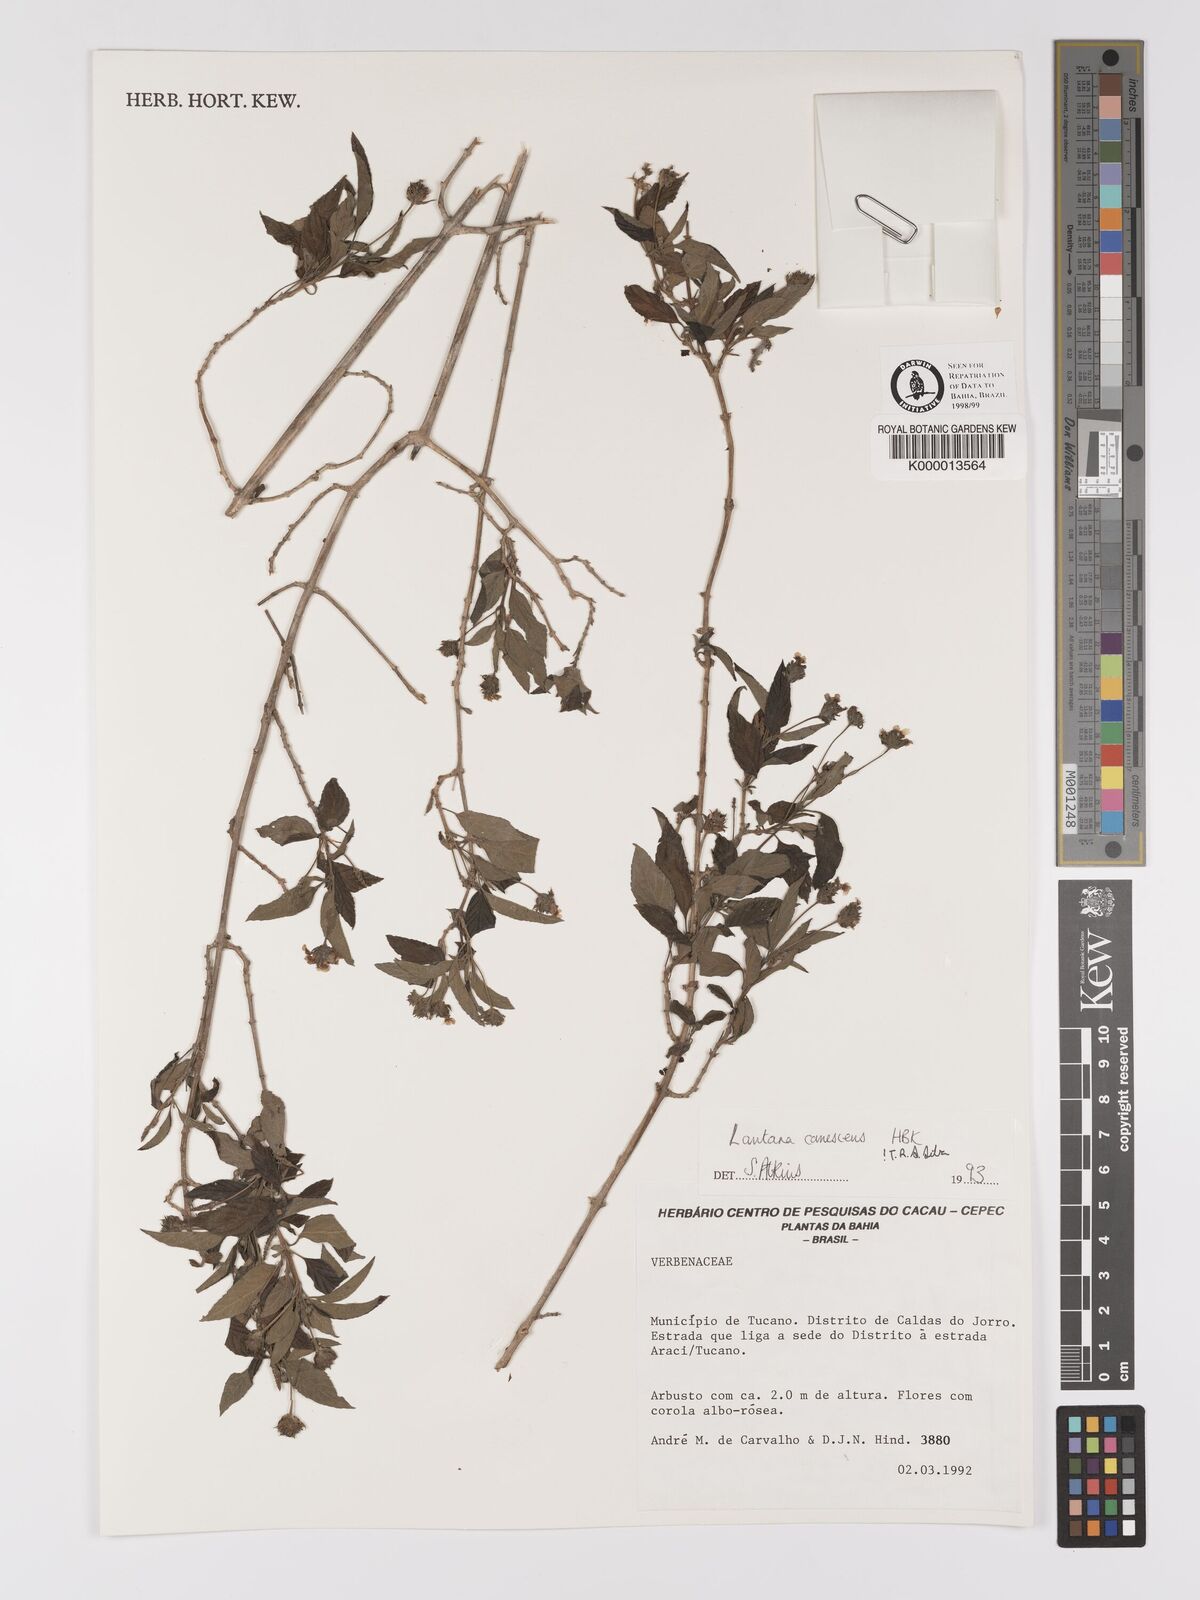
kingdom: Plantae
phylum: Tracheophyta
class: Magnoliopsida
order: Lamiales
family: Verbenaceae
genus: Lantana
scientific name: Lantana canescens
